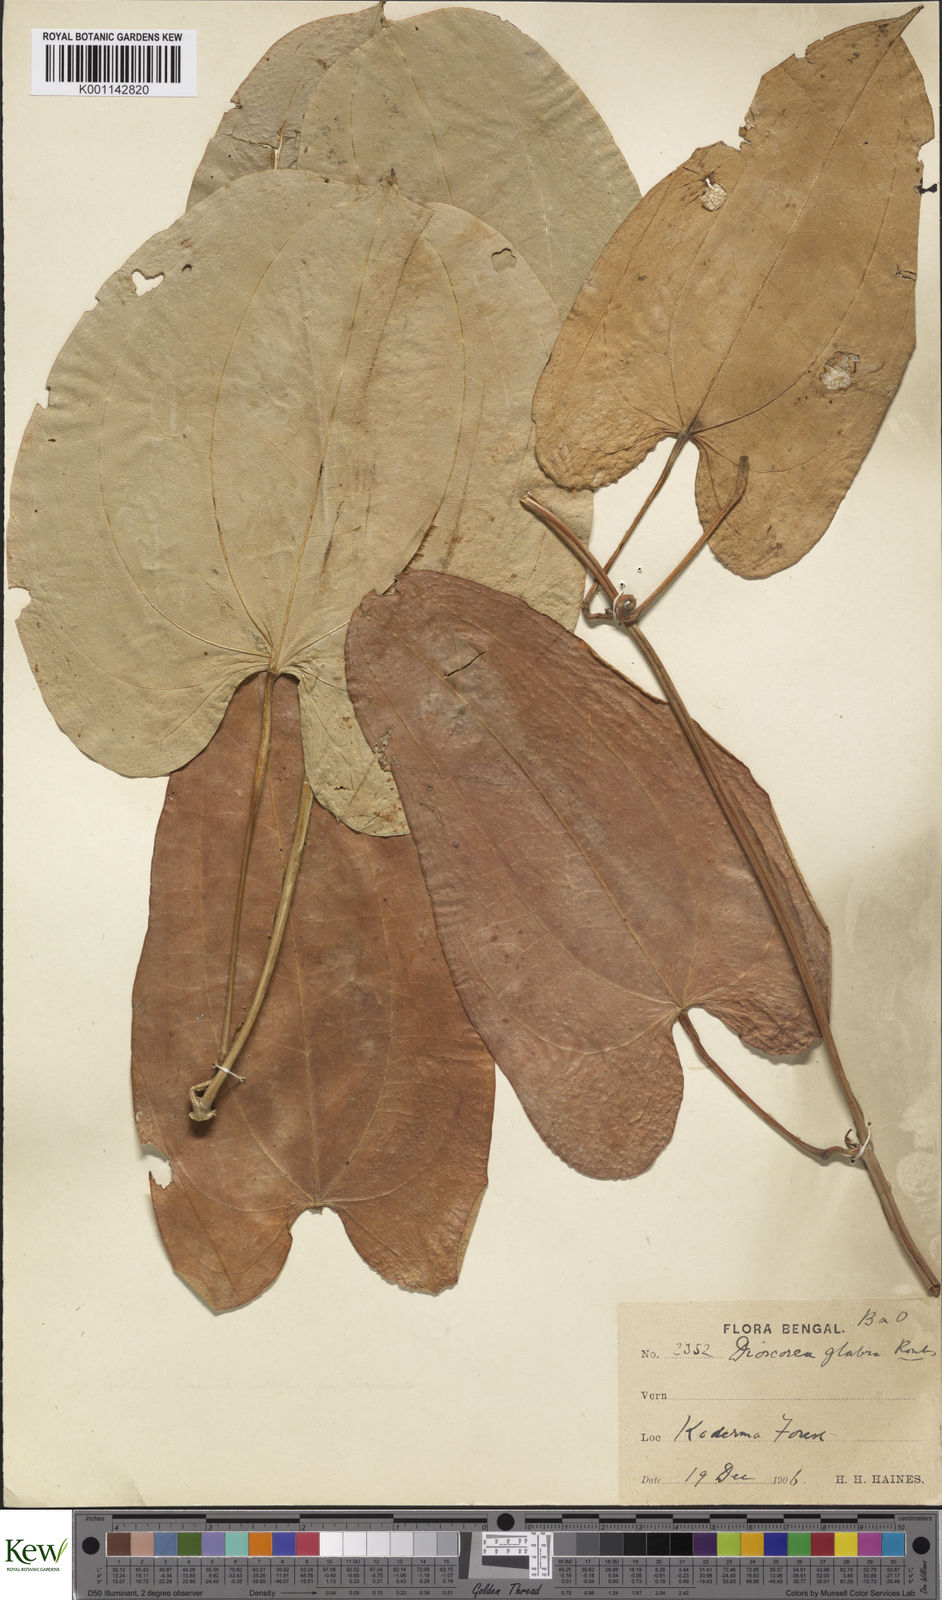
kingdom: Plantae
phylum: Tracheophyta
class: Liliopsida
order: Dioscoreales
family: Dioscoreaceae
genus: Dioscorea
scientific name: Dioscorea glabra
